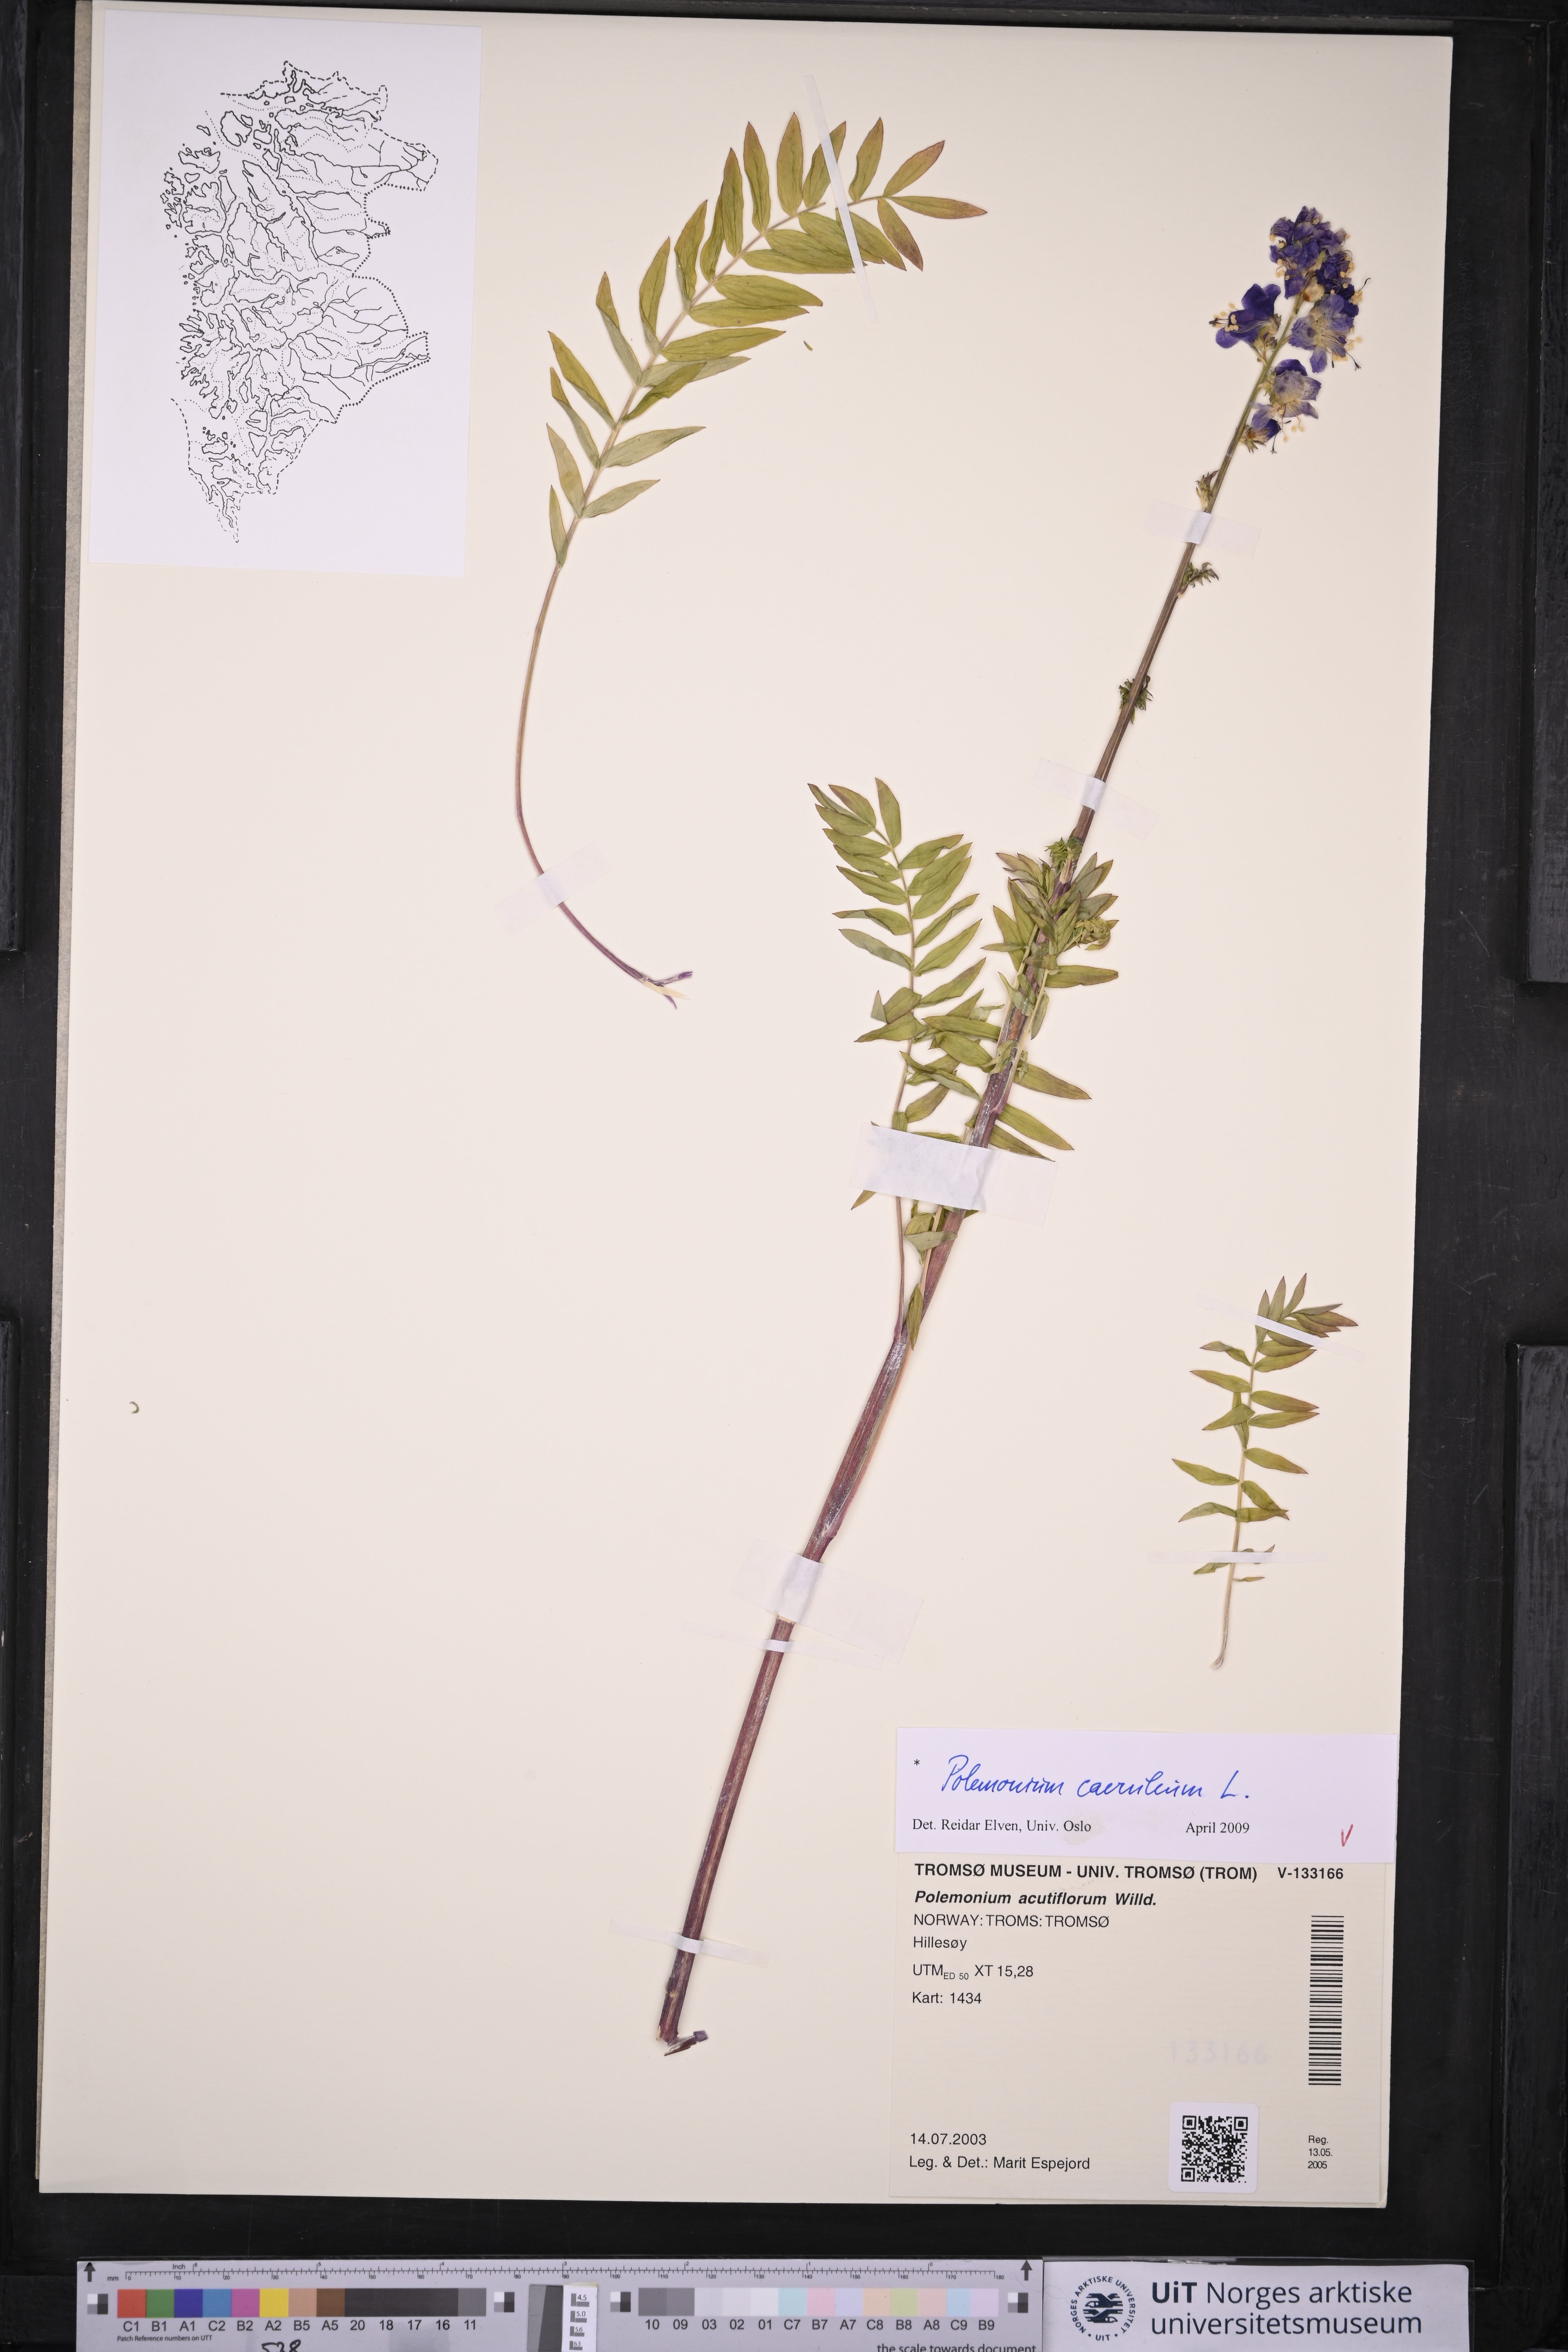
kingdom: Plantae
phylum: Tracheophyta
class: Magnoliopsida
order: Ericales
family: Polemoniaceae
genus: Polemonium
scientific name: Polemonium caeruleum
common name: Jacob's-ladder
